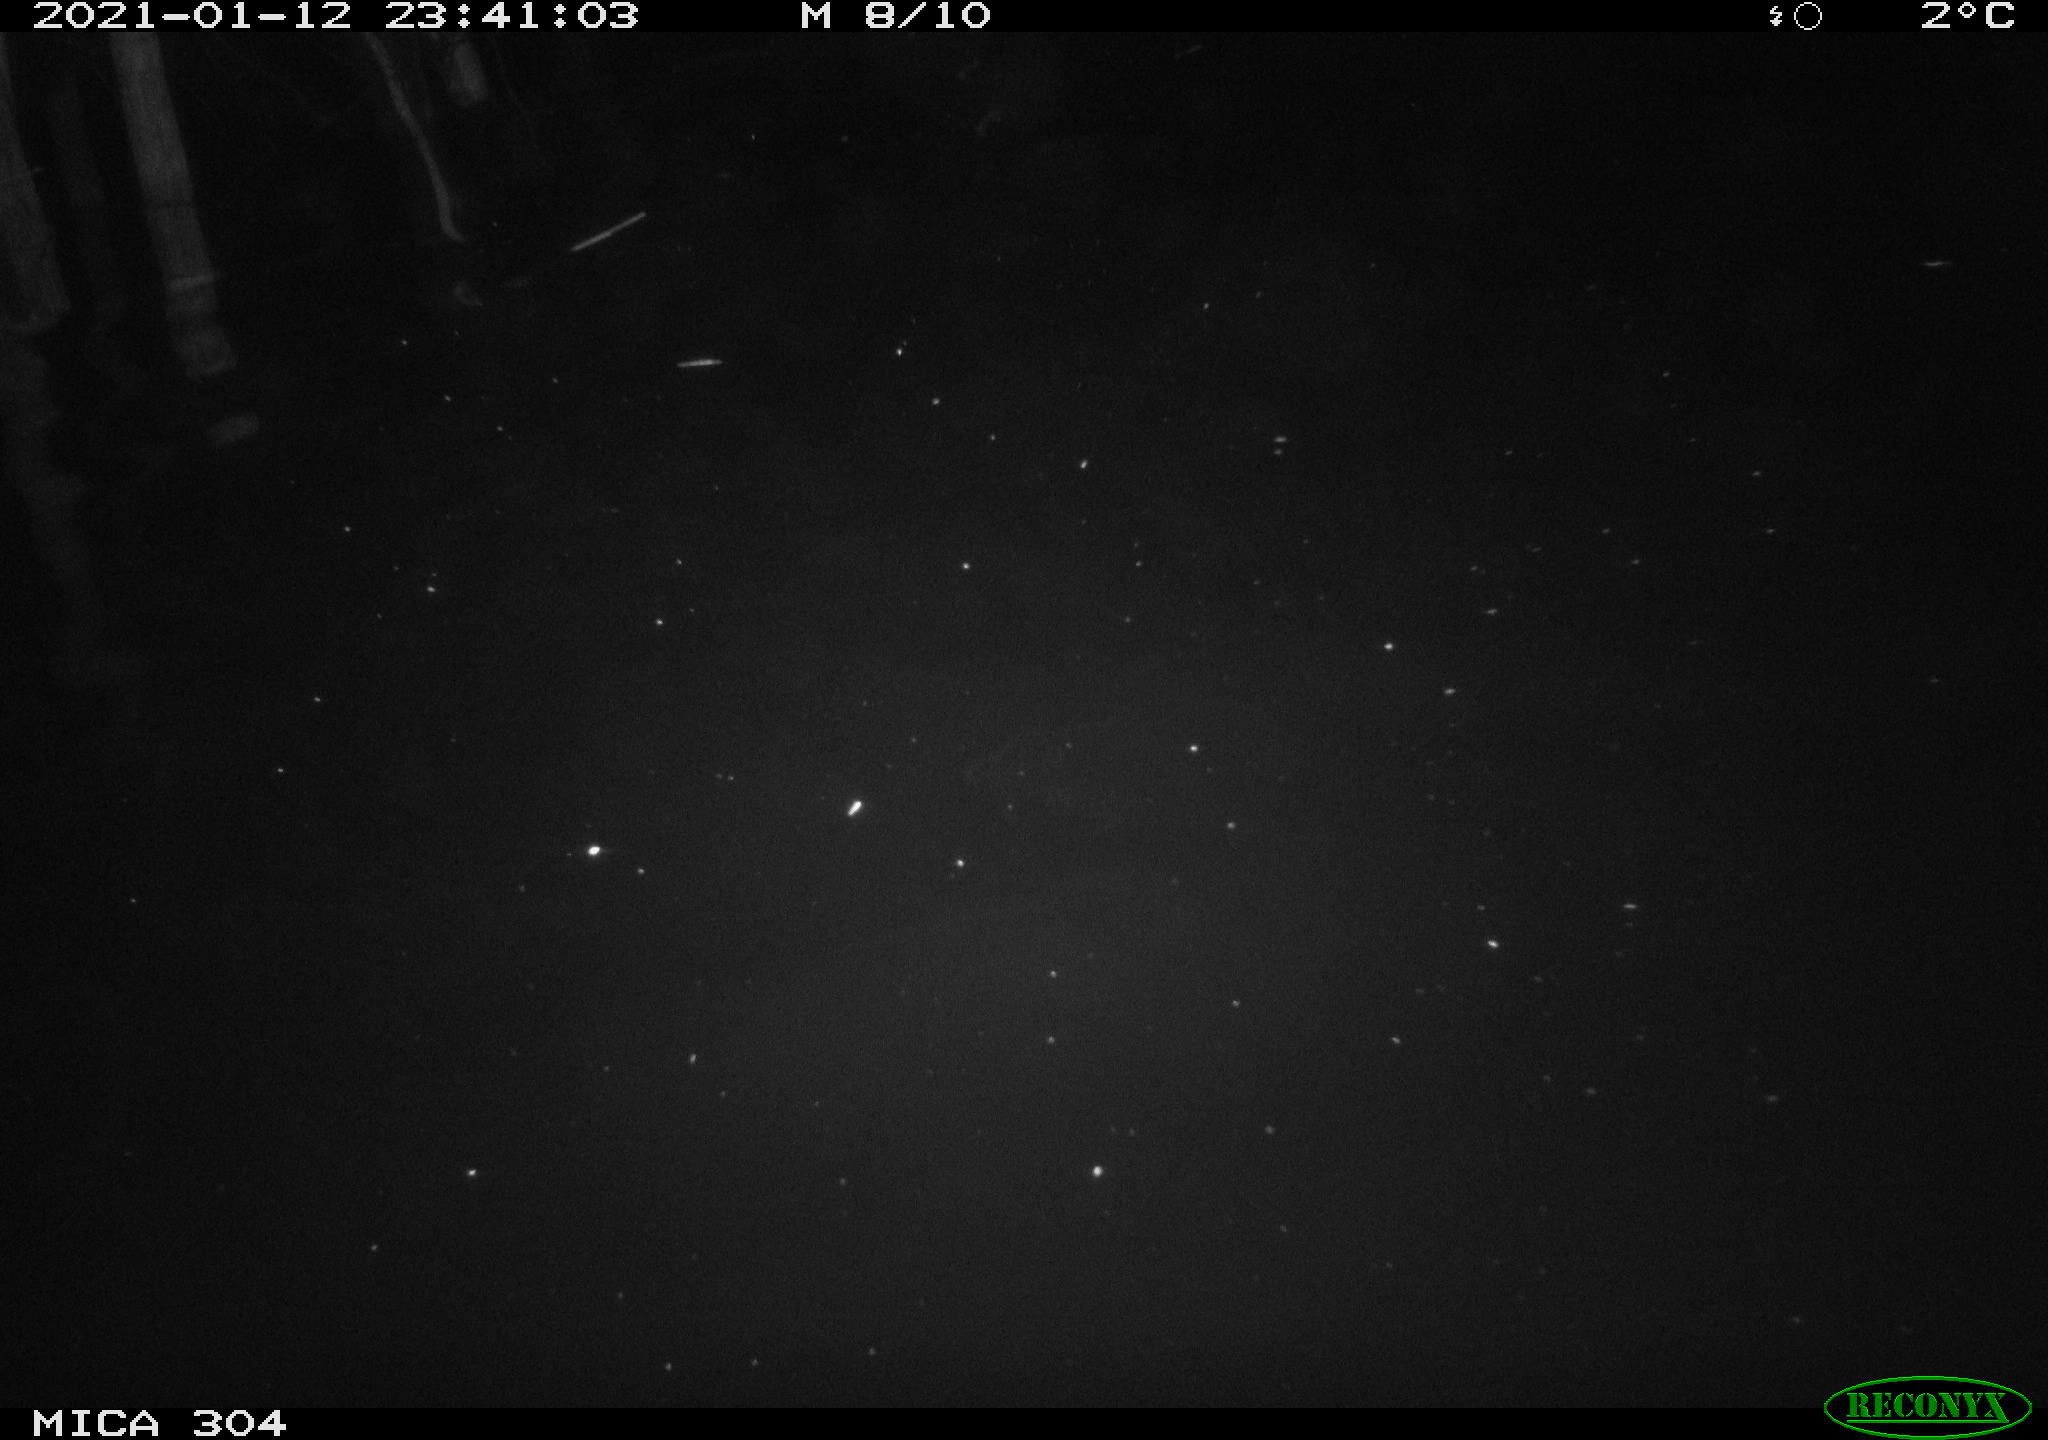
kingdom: Animalia
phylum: Chordata
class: Mammalia
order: Rodentia
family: Cricetidae
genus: Ondatra
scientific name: Ondatra zibethicus
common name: Muskrat
